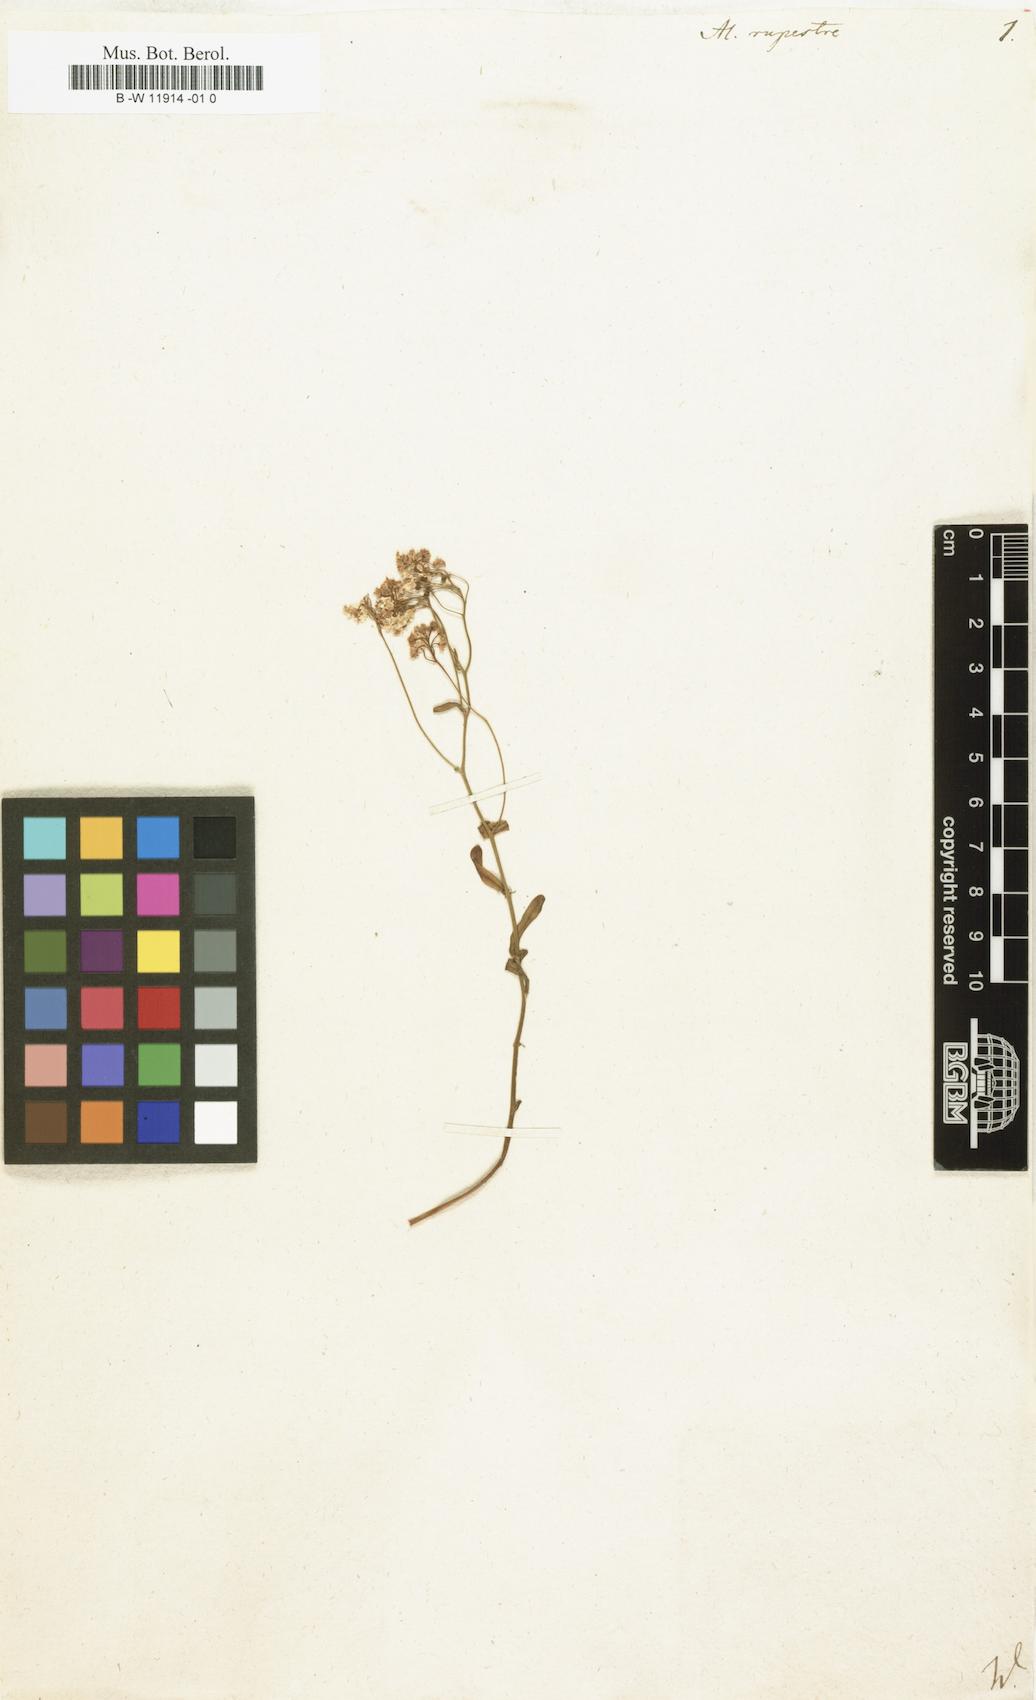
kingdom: Plantae
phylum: Tracheophyta
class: Magnoliopsida
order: Brassicales
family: Brassicaceae
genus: Phyllolepidium
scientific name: Phyllolepidium rupestre
